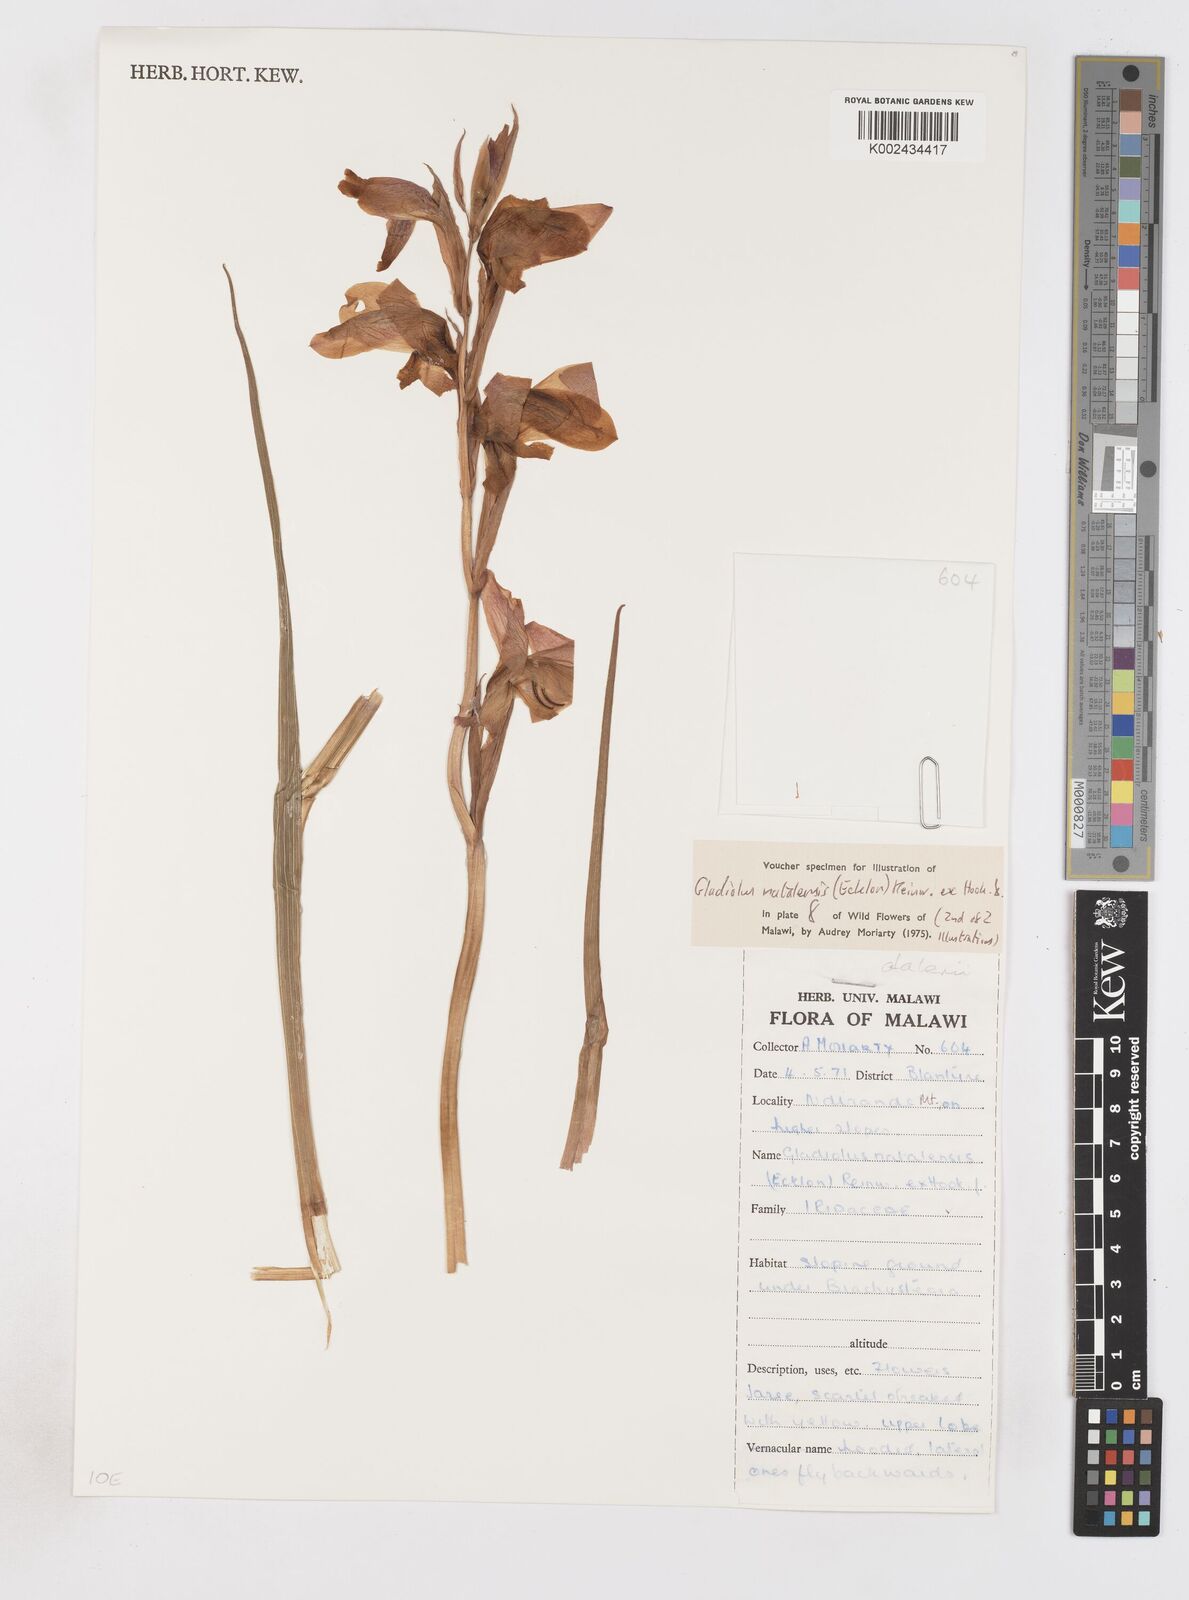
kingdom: Plantae
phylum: Tracheophyta
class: Liliopsida
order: Asparagales
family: Iridaceae
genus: Gladiolus
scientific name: Gladiolus dalenii
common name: Cornflag
